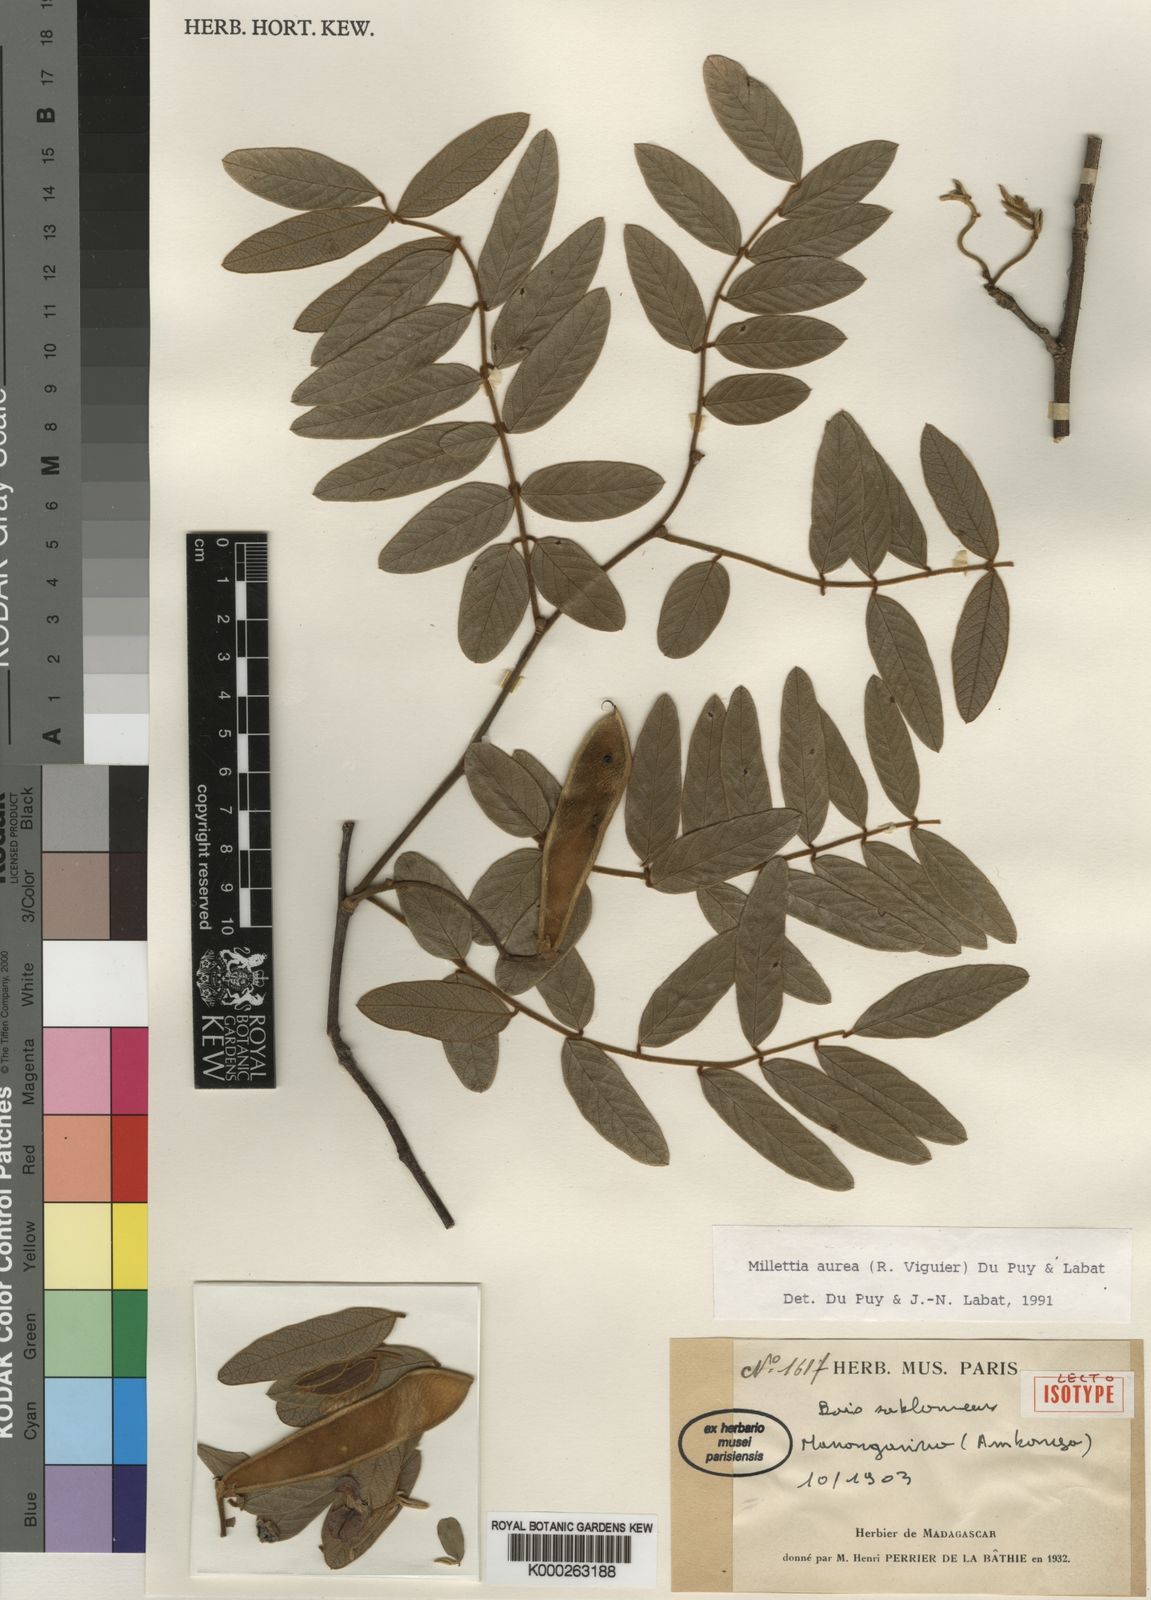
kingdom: Plantae
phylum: Tracheophyta
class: Magnoliopsida
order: Fabales
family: Fabaceae
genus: Millettia
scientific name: Millettia aurea
